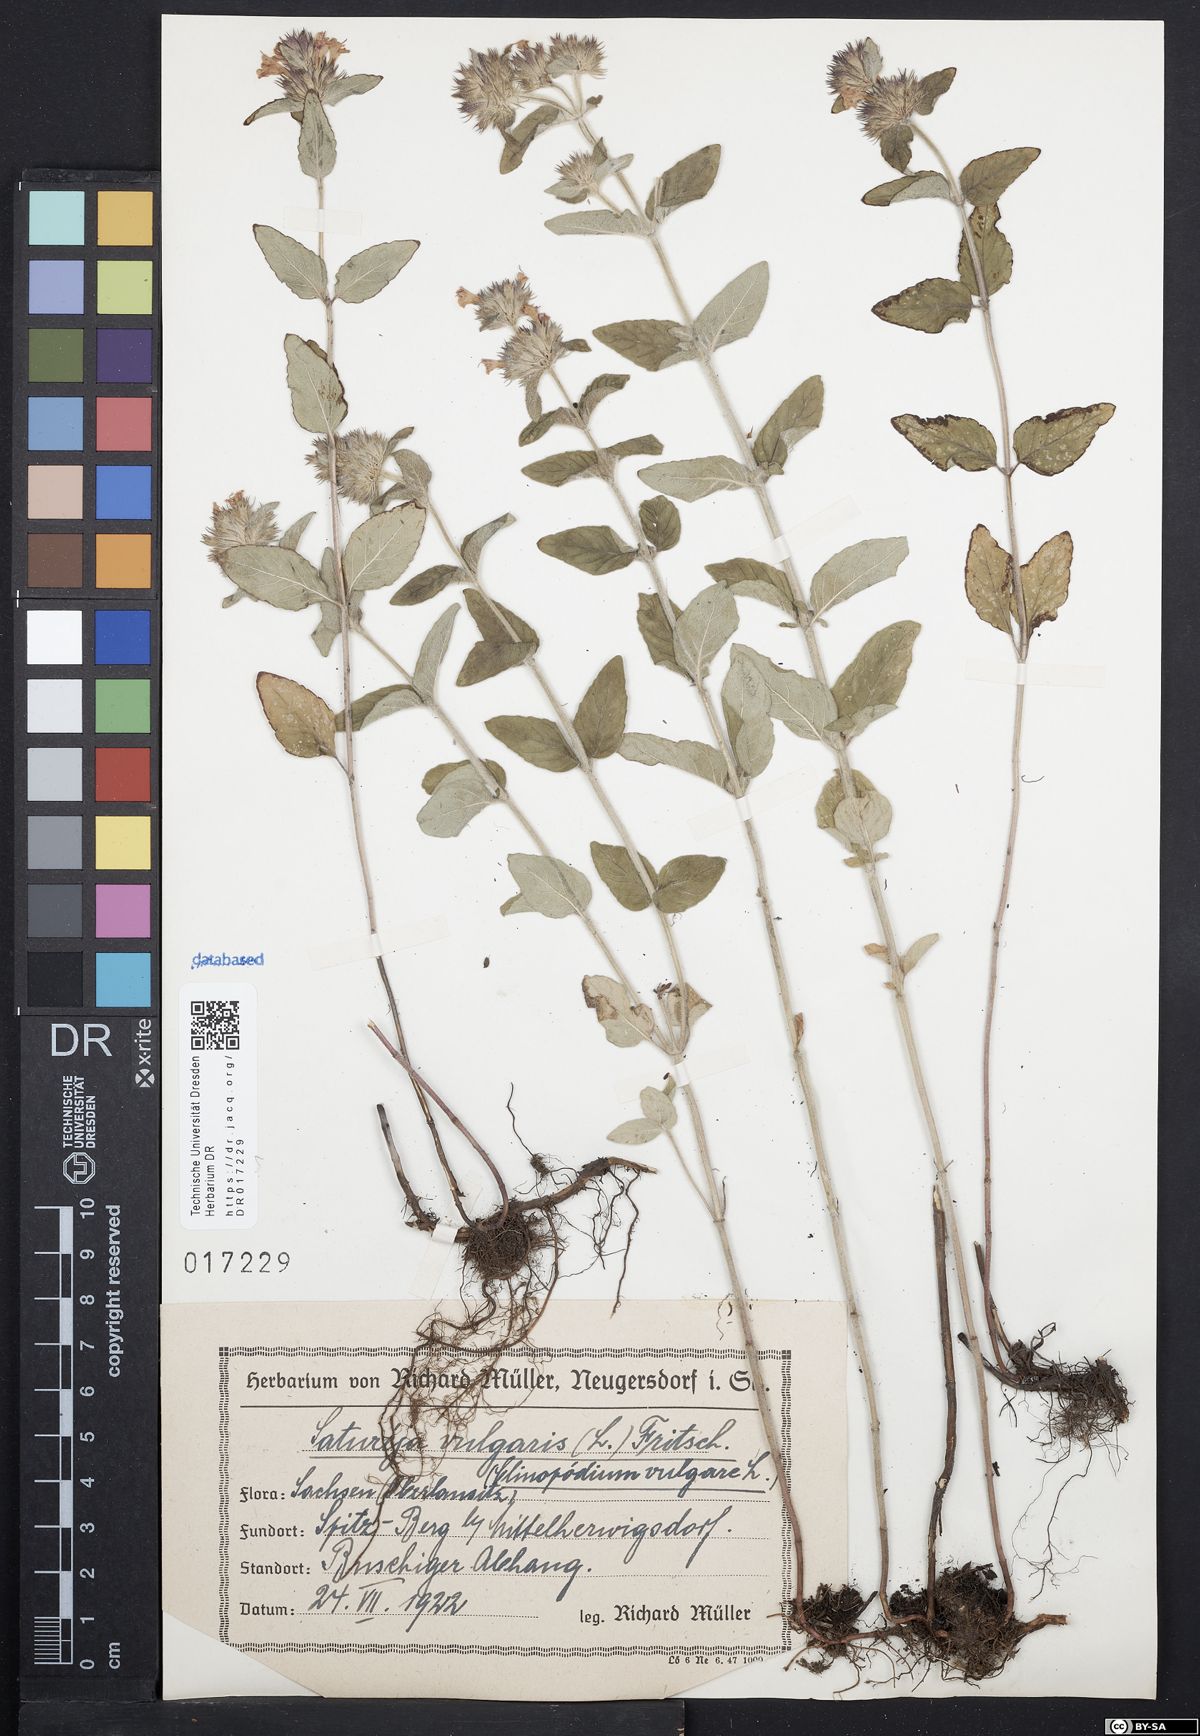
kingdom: Plantae
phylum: Tracheophyta
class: Magnoliopsida
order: Lamiales
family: Lamiaceae
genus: Clinopodium
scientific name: Clinopodium vulgare
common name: Wild basil
